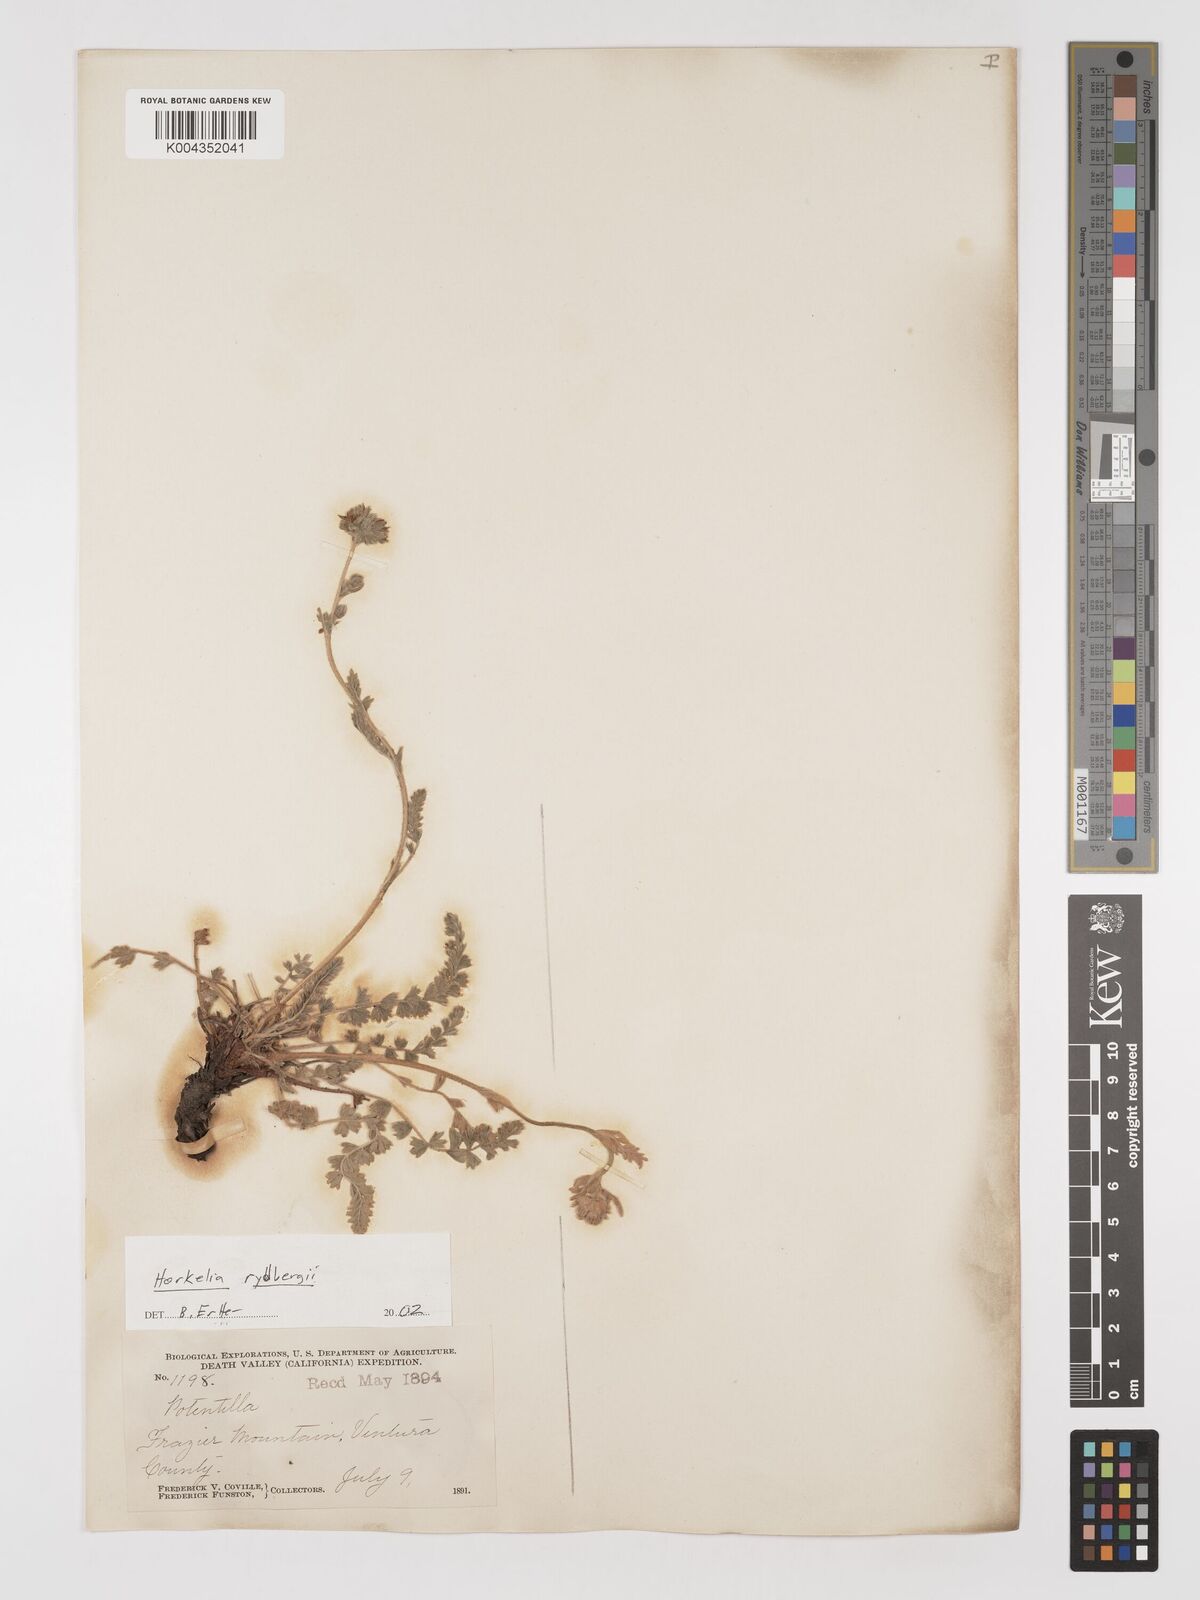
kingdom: Plantae
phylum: Tracheophyta
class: Magnoliopsida
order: Rosales
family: Rosaceae
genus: Potentilla
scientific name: Potentilla rydbergii
